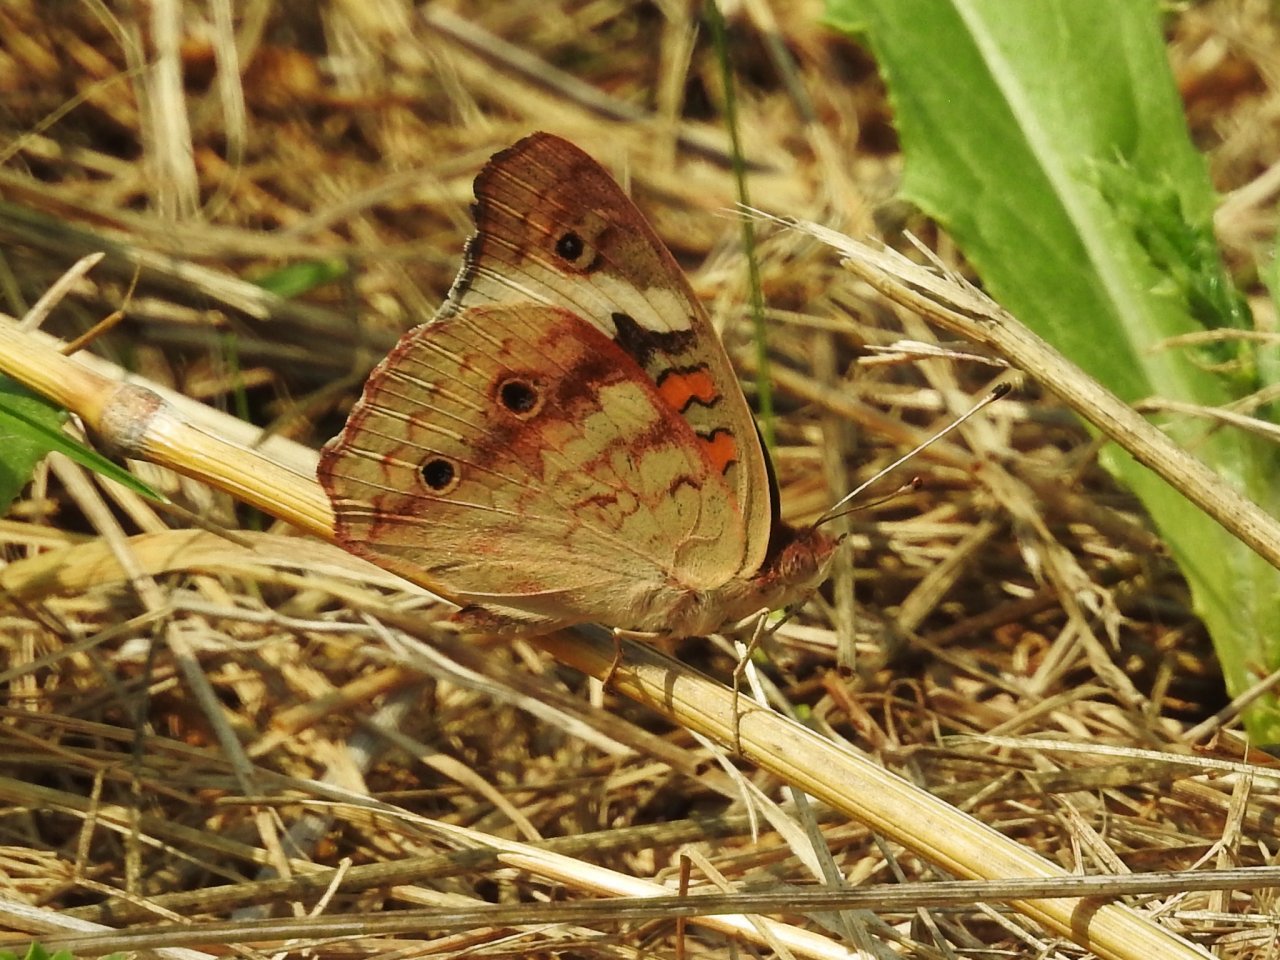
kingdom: Animalia
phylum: Arthropoda
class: Insecta
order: Lepidoptera
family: Nymphalidae
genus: Junonia
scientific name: Junonia coenia
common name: Common Buckeye
